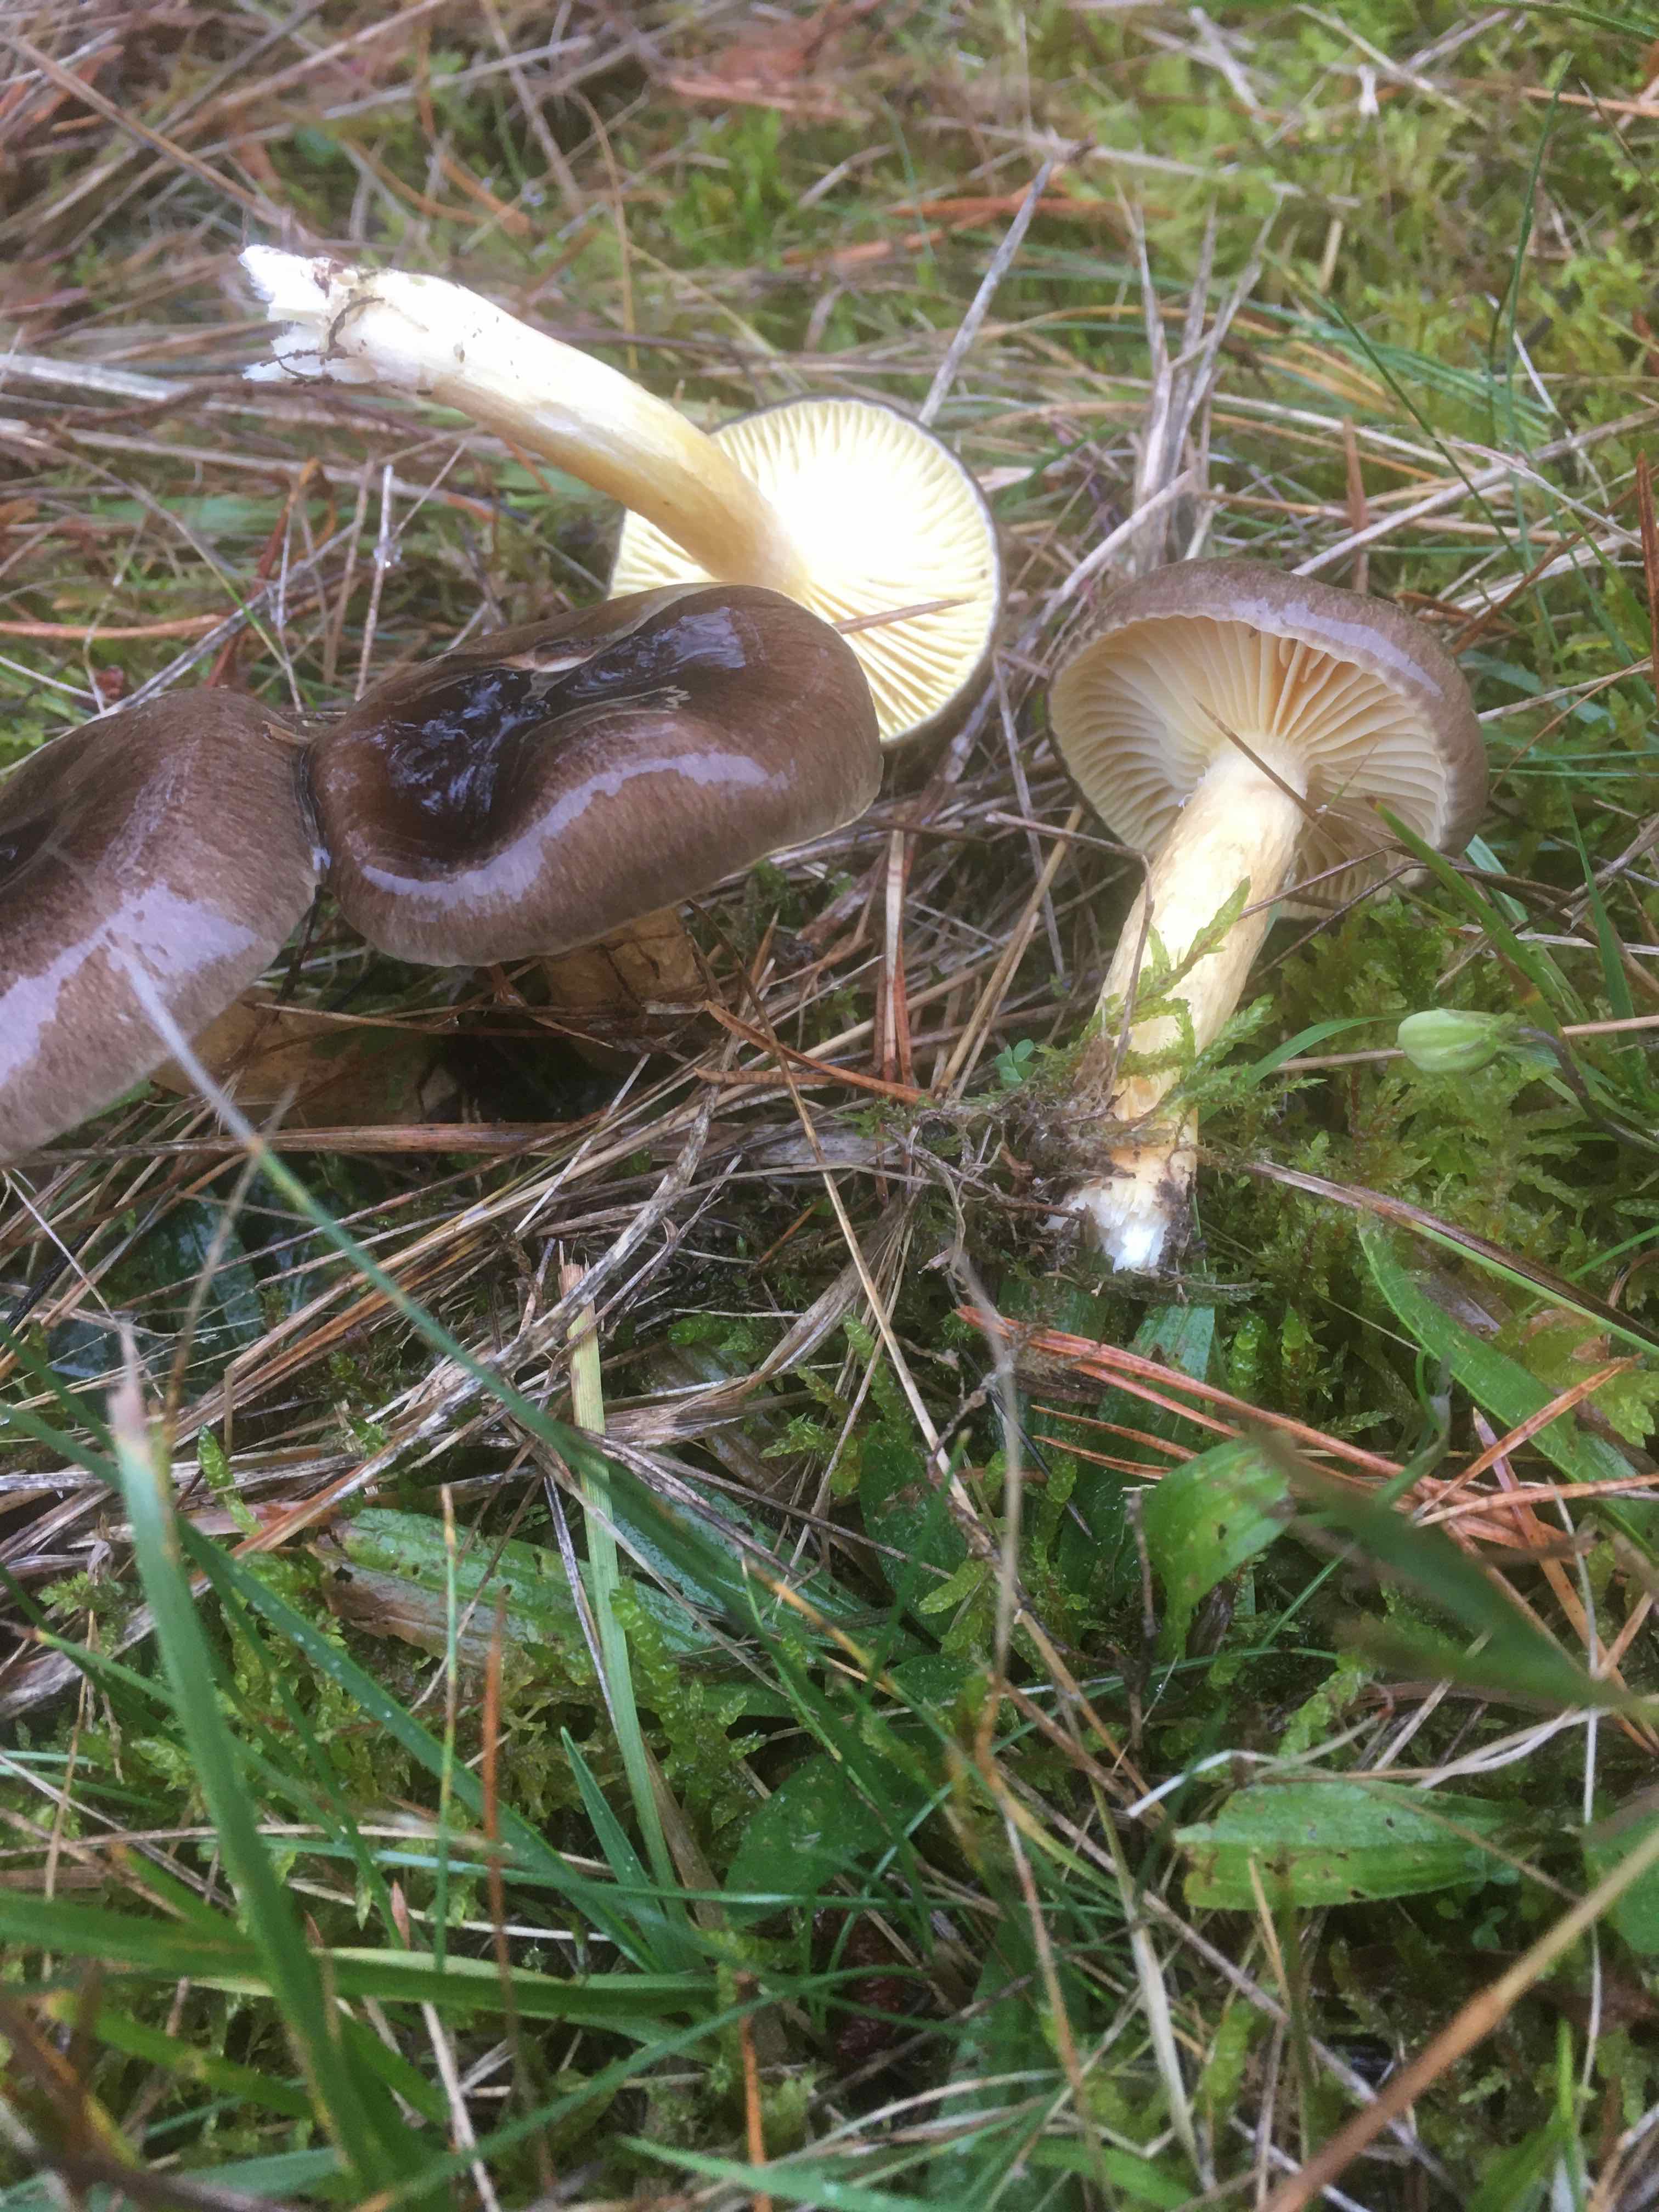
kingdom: Fungi
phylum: Basidiomycota
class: Agaricomycetes
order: Agaricales
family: Hygrophoraceae
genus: Hygrophorus
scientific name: Hygrophorus hypothejus
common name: frost-sneglehat
